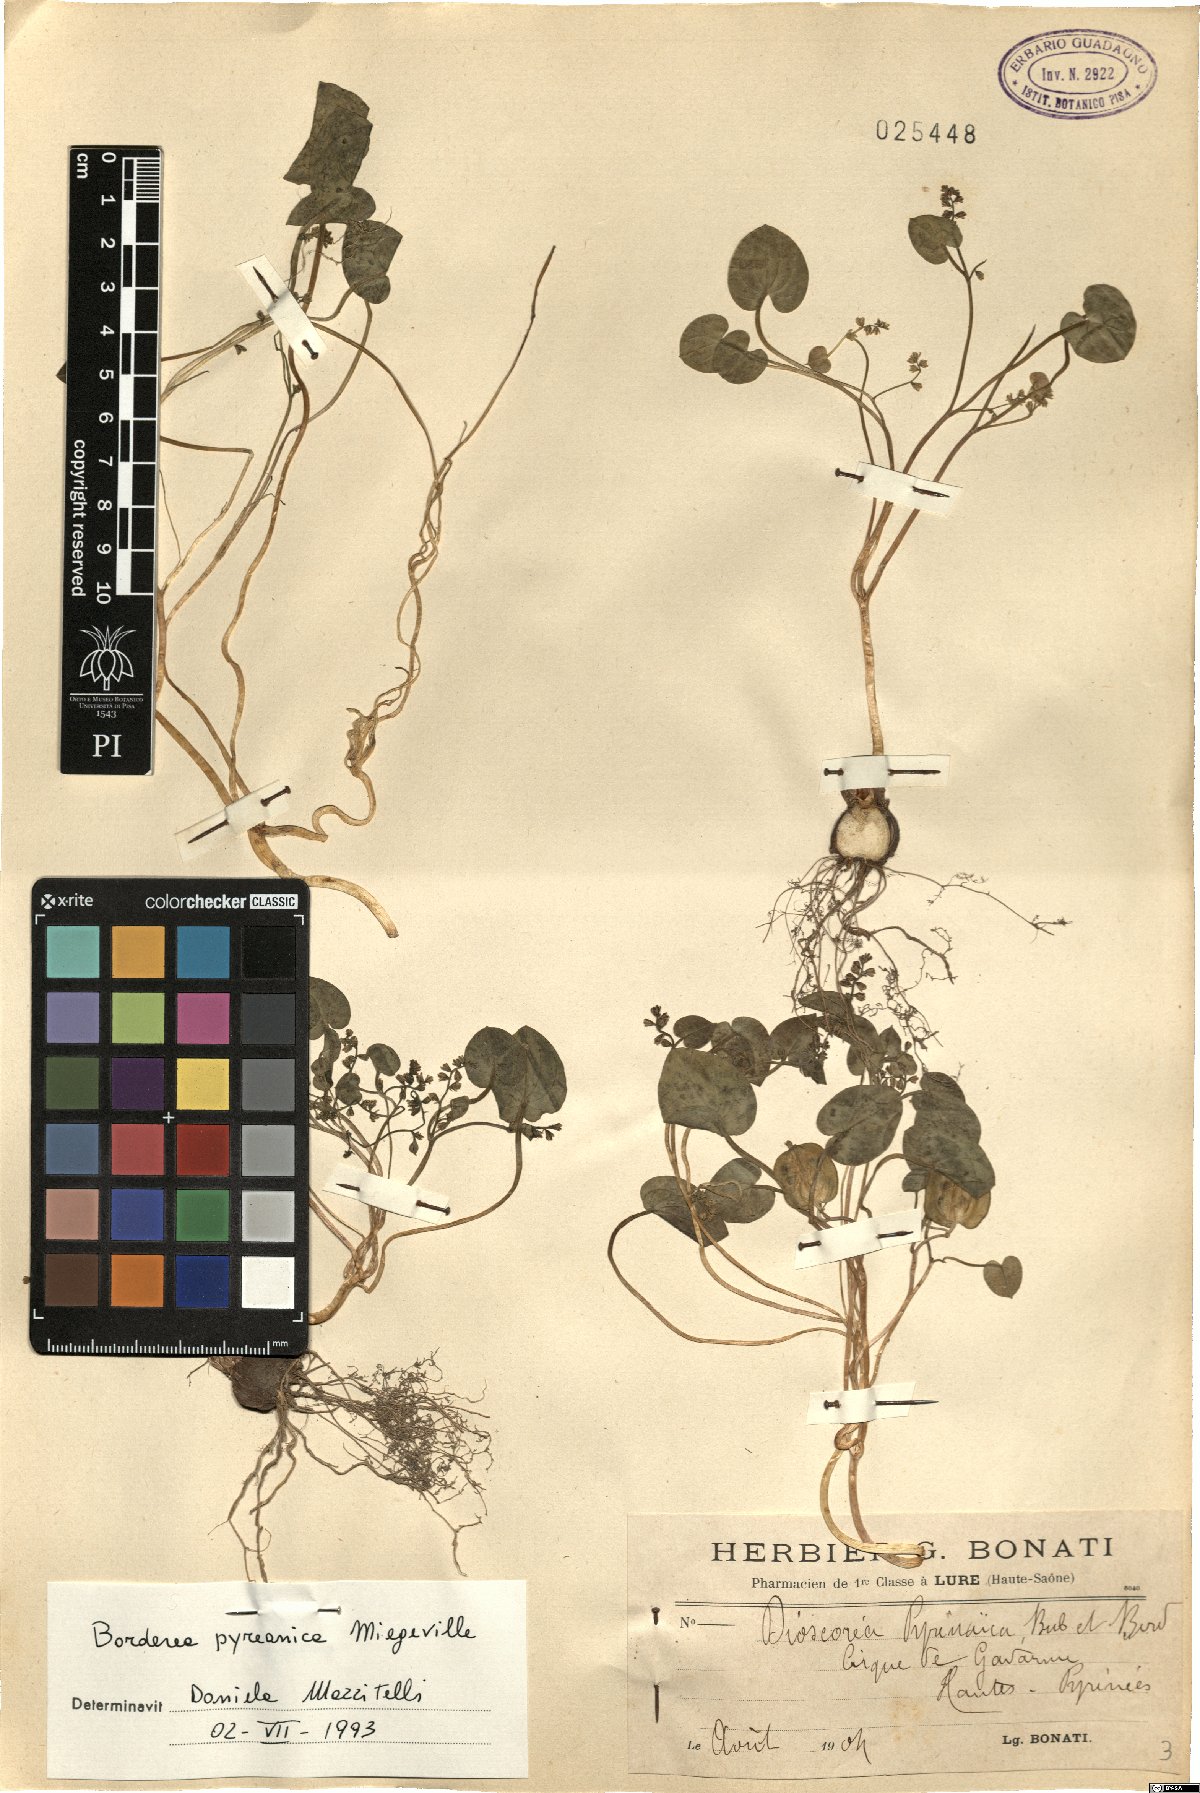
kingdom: Plantae
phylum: Tracheophyta
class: Liliopsida
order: Dioscoreales
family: Dioscoreaceae
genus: Dioscorea
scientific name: Dioscorea pyrenaica
